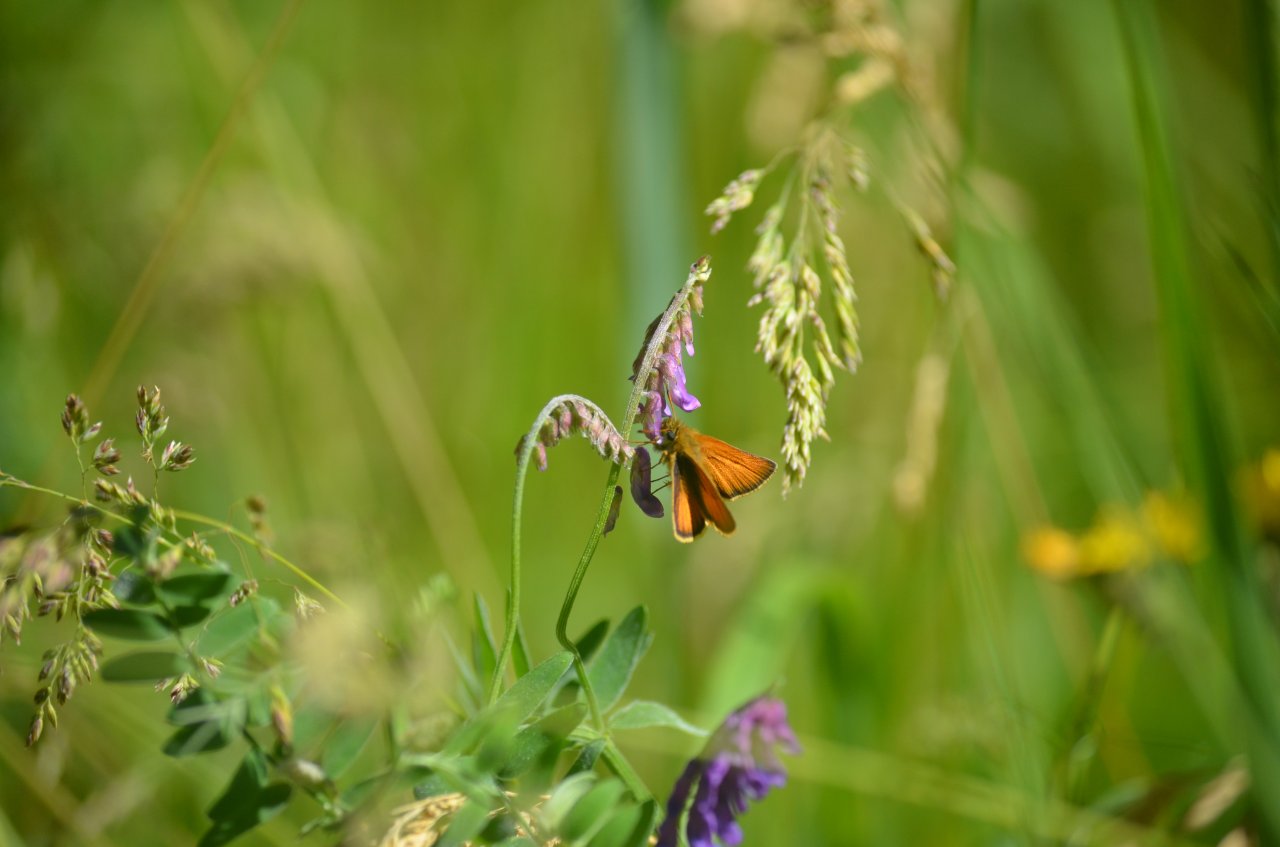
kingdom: Animalia
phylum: Arthropoda
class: Insecta
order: Lepidoptera
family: Hesperiidae
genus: Thymelicus
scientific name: Thymelicus lineola
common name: European Skipper
